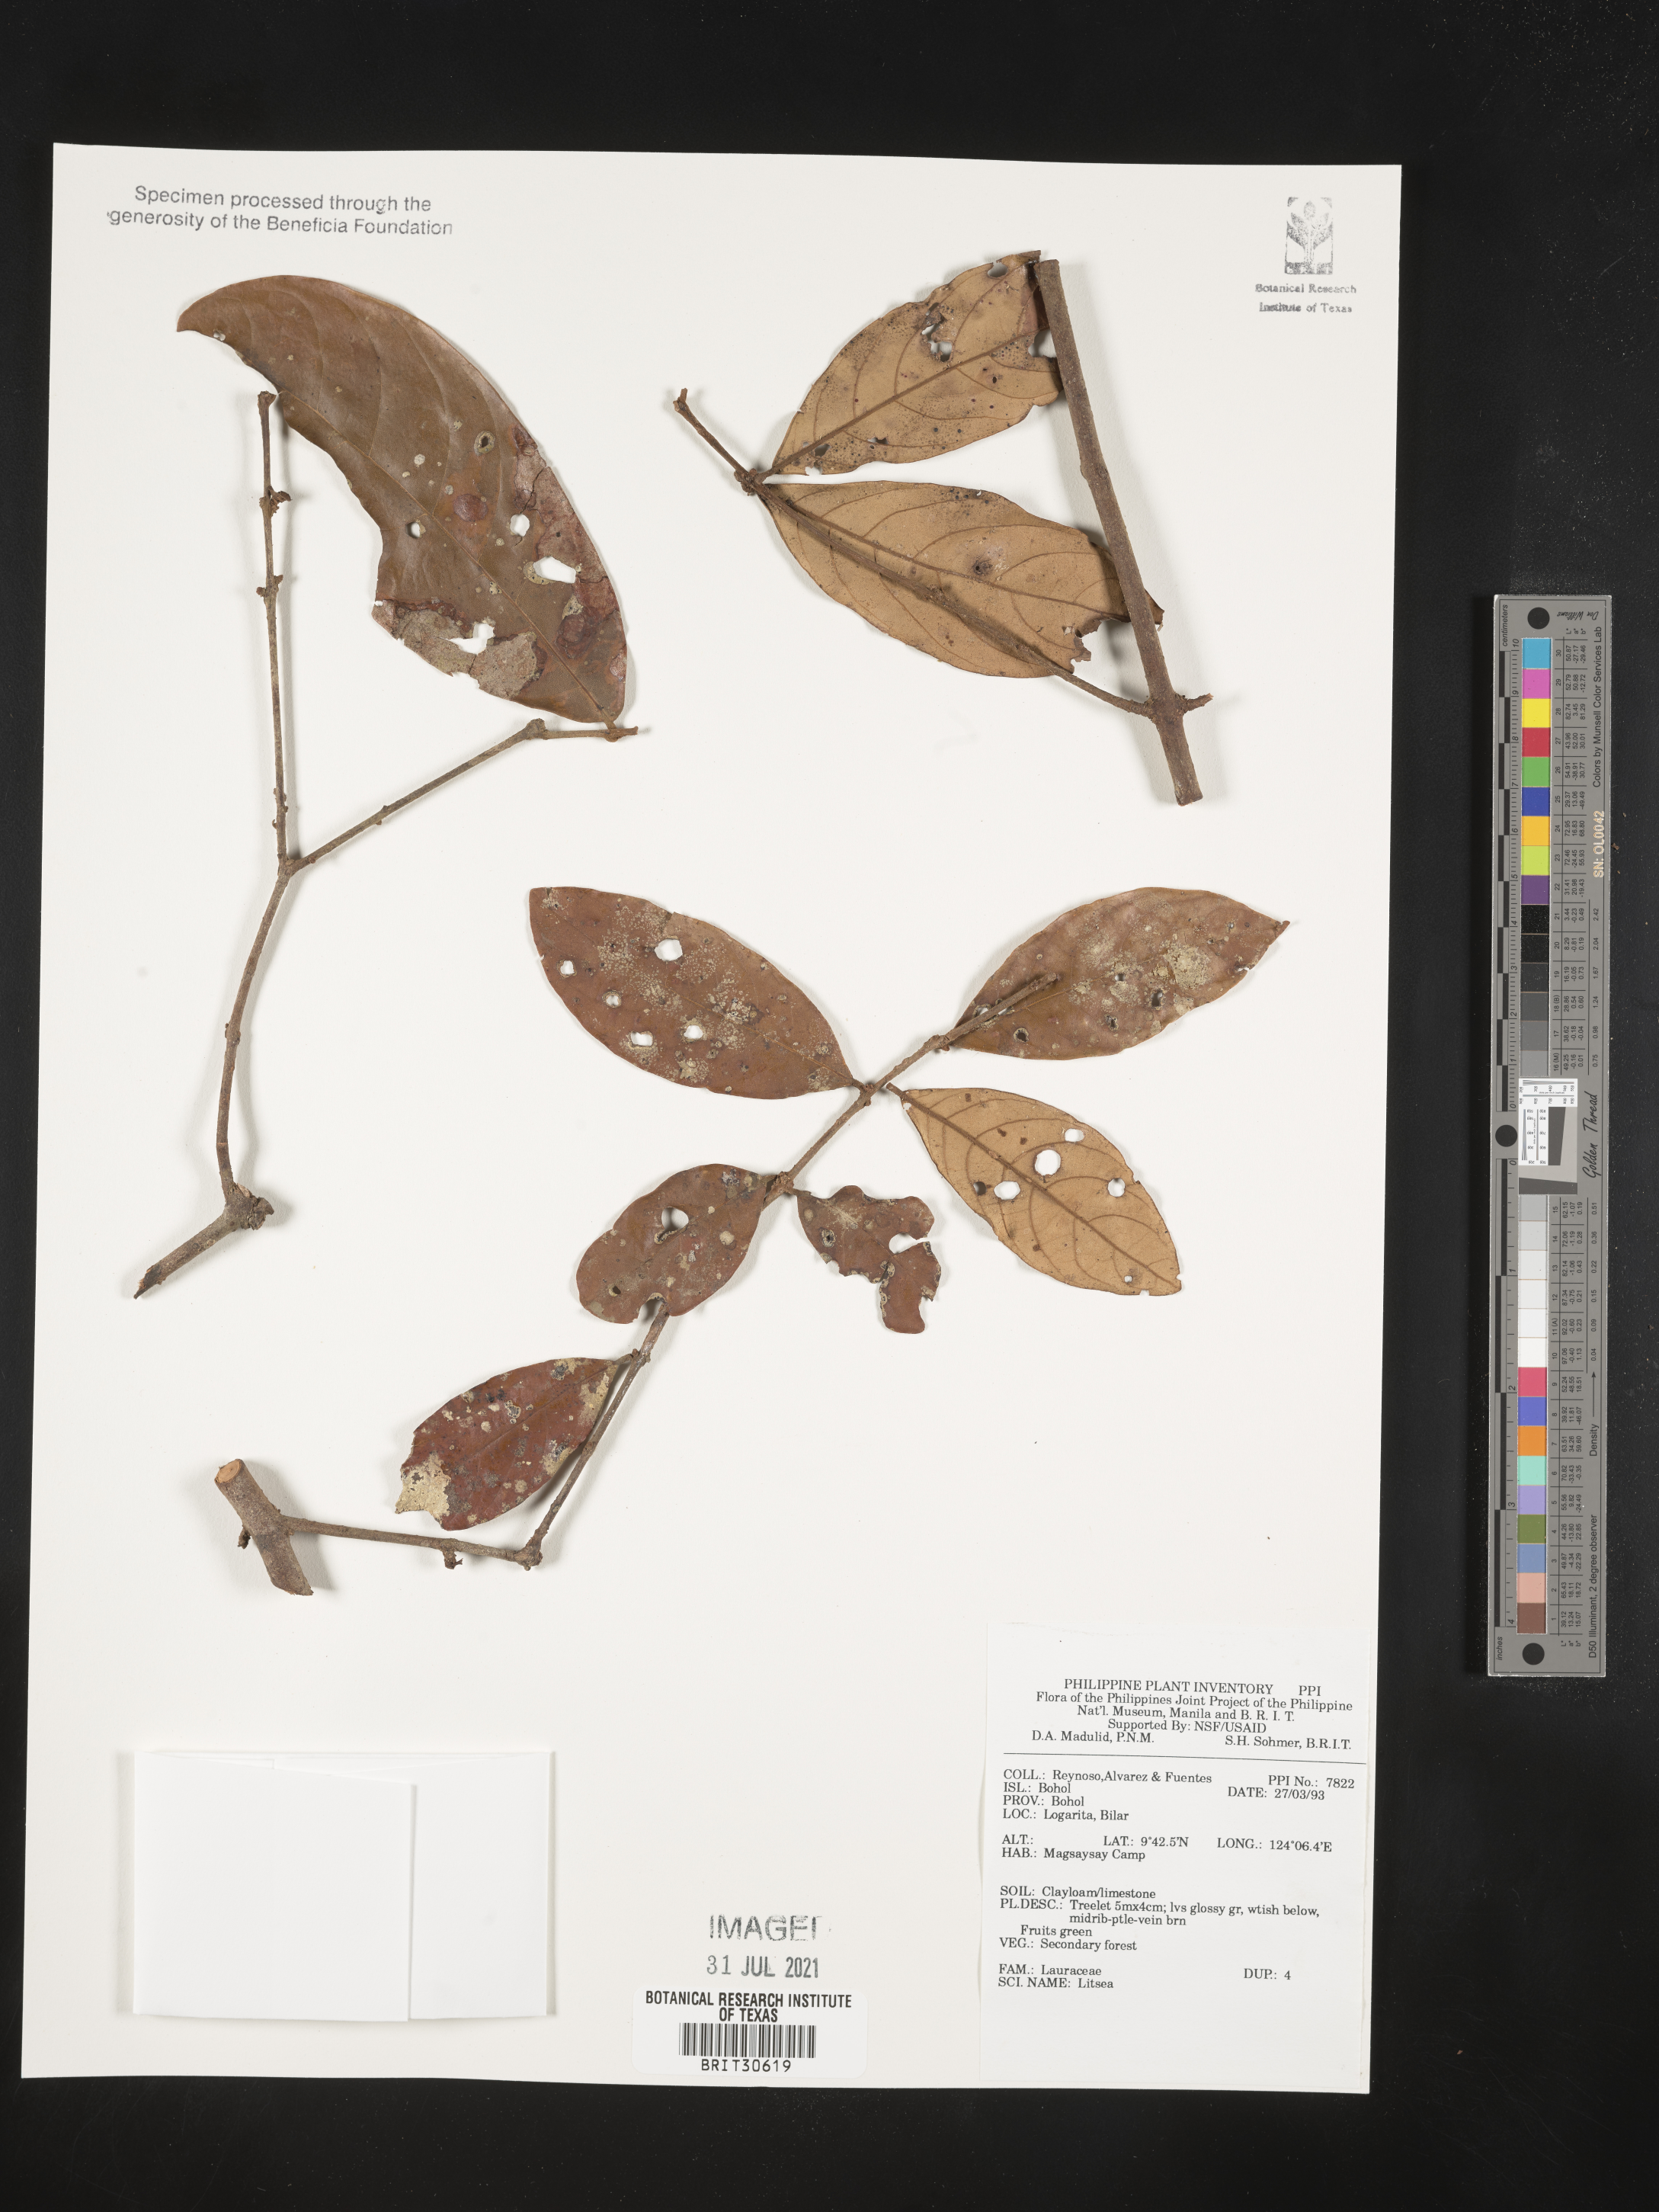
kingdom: Plantae
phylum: Tracheophyta
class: Magnoliopsida
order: Laurales
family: Lauraceae
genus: Litsea
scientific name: Litsea
